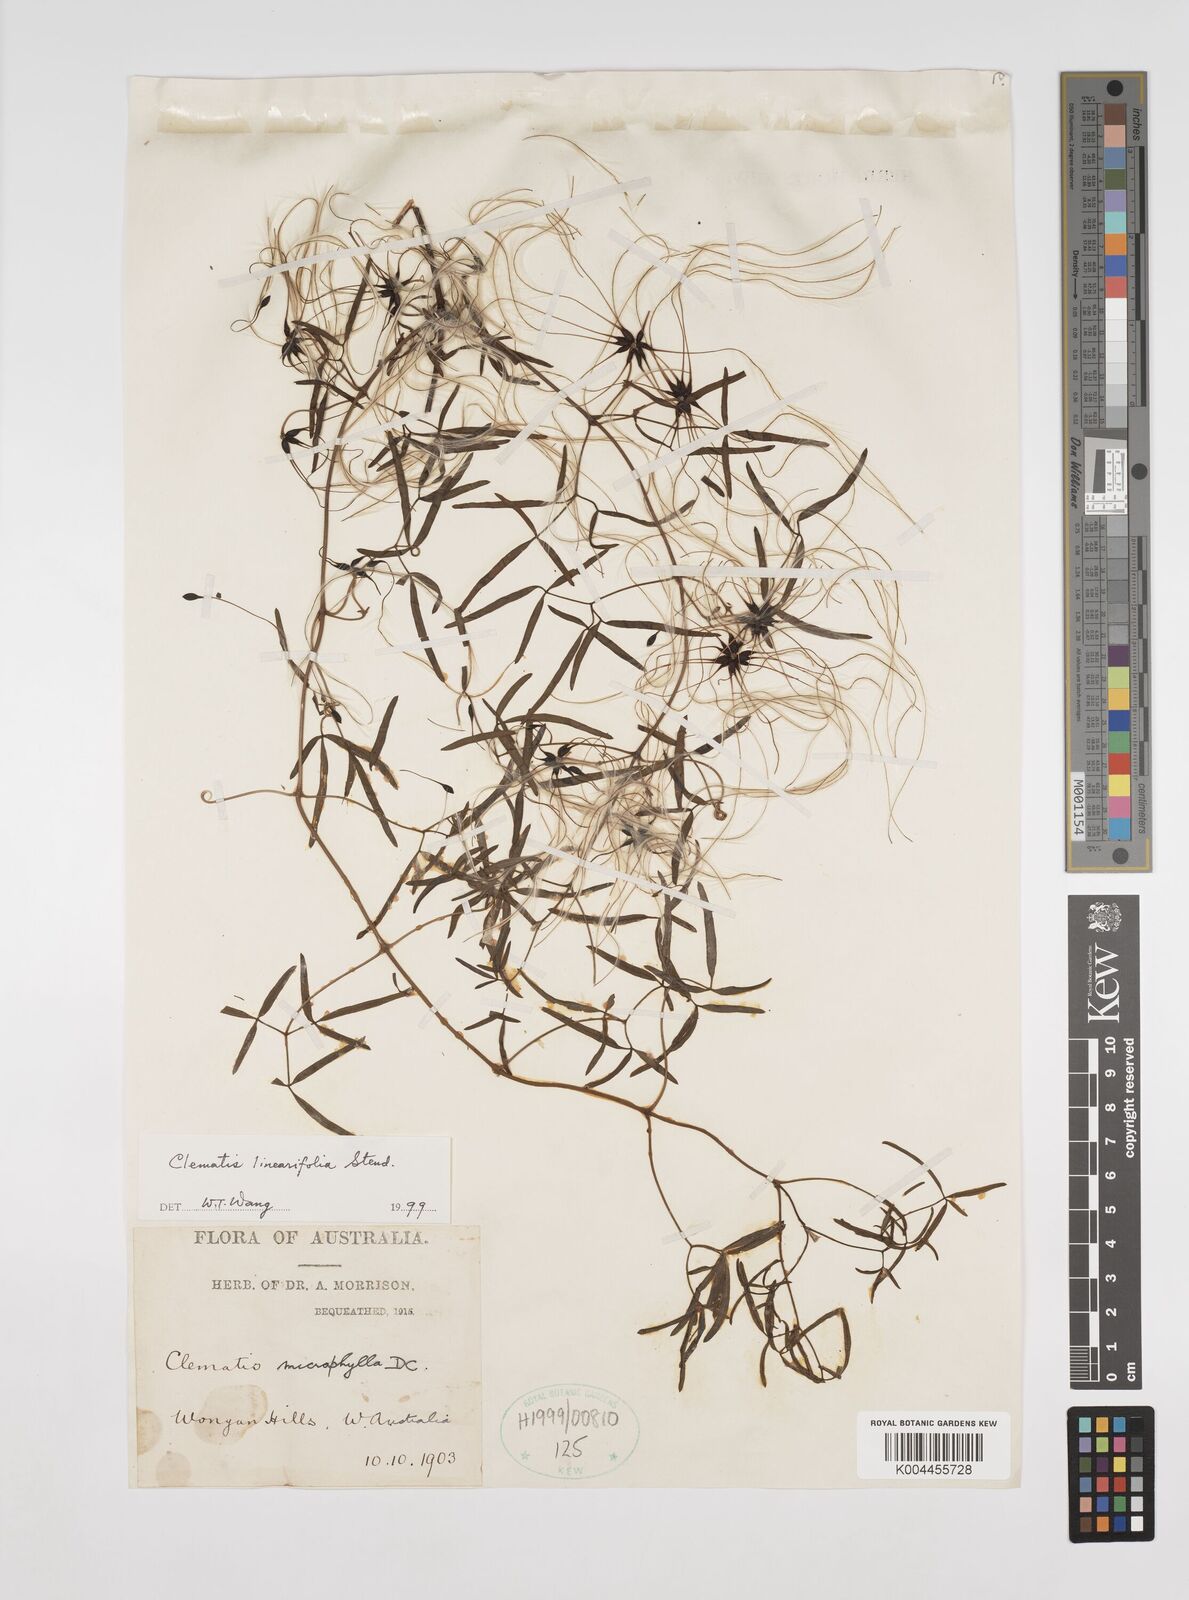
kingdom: Plantae
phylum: Tracheophyta
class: Magnoliopsida
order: Ranunculales
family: Ranunculaceae
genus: Clematis
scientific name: Clematis linearifolia
